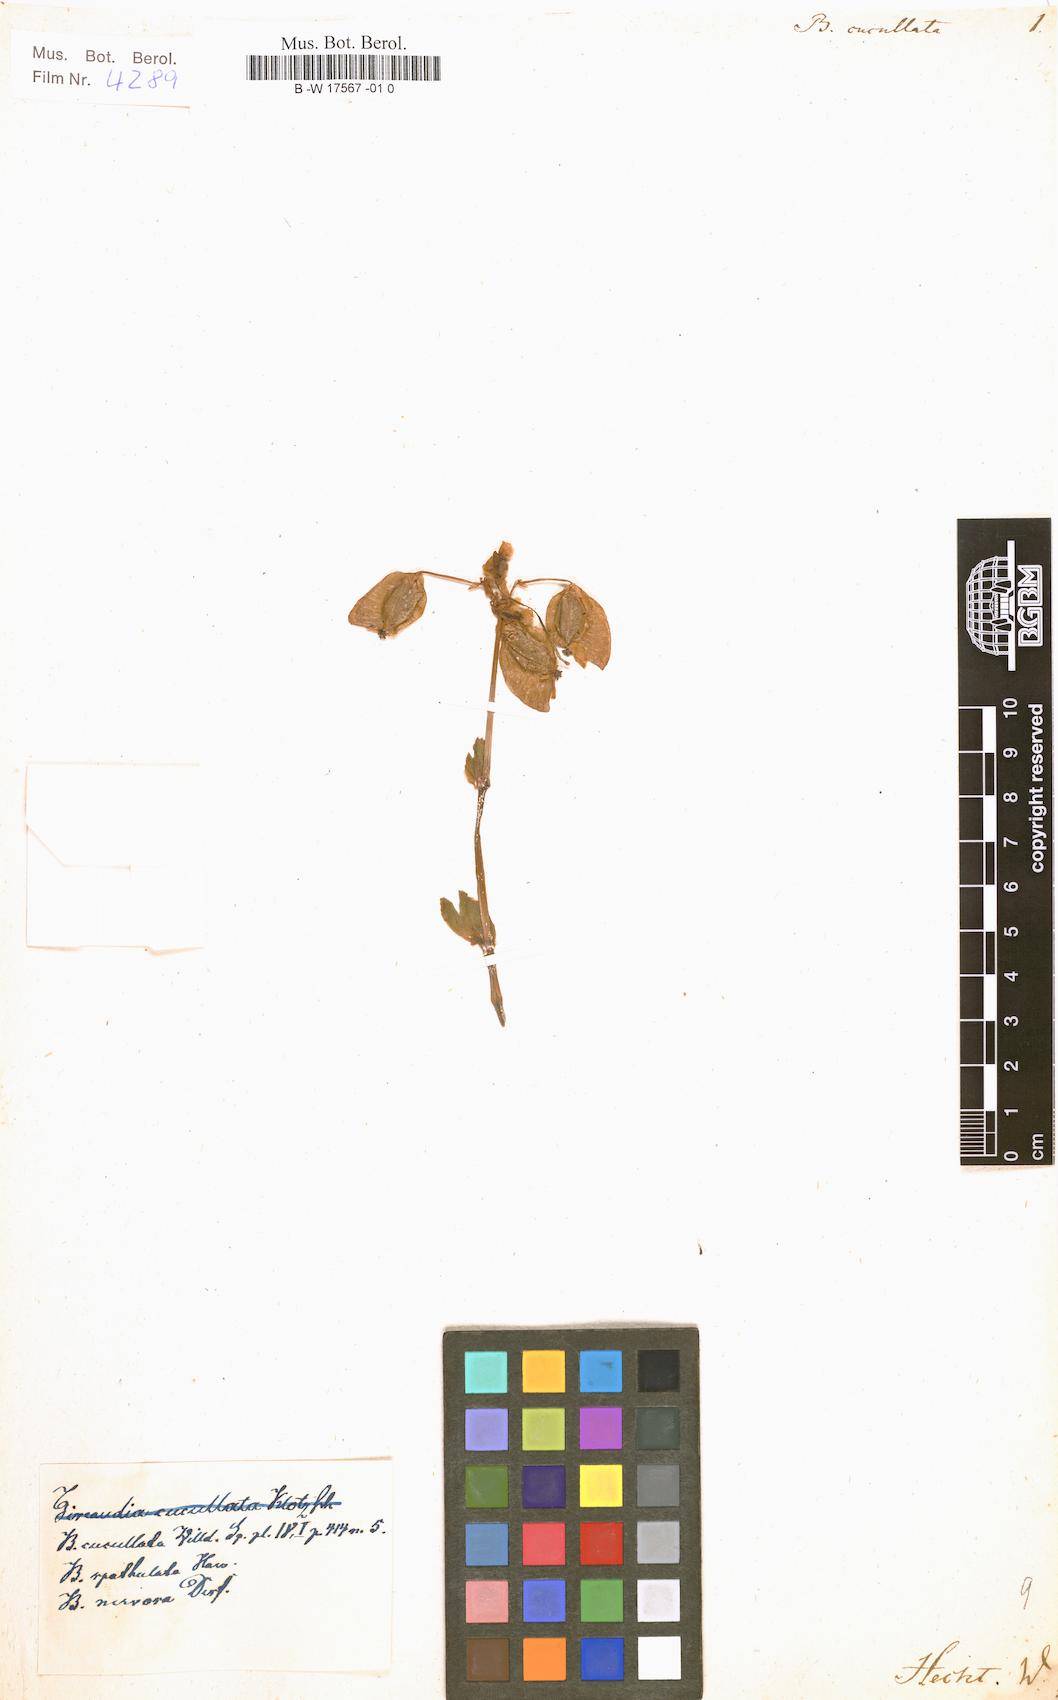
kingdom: Plantae
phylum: Tracheophyta
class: Magnoliopsida
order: Cucurbitales
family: Begoniaceae
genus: Begonia
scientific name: Begonia cucullata
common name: Clubbed begonia
